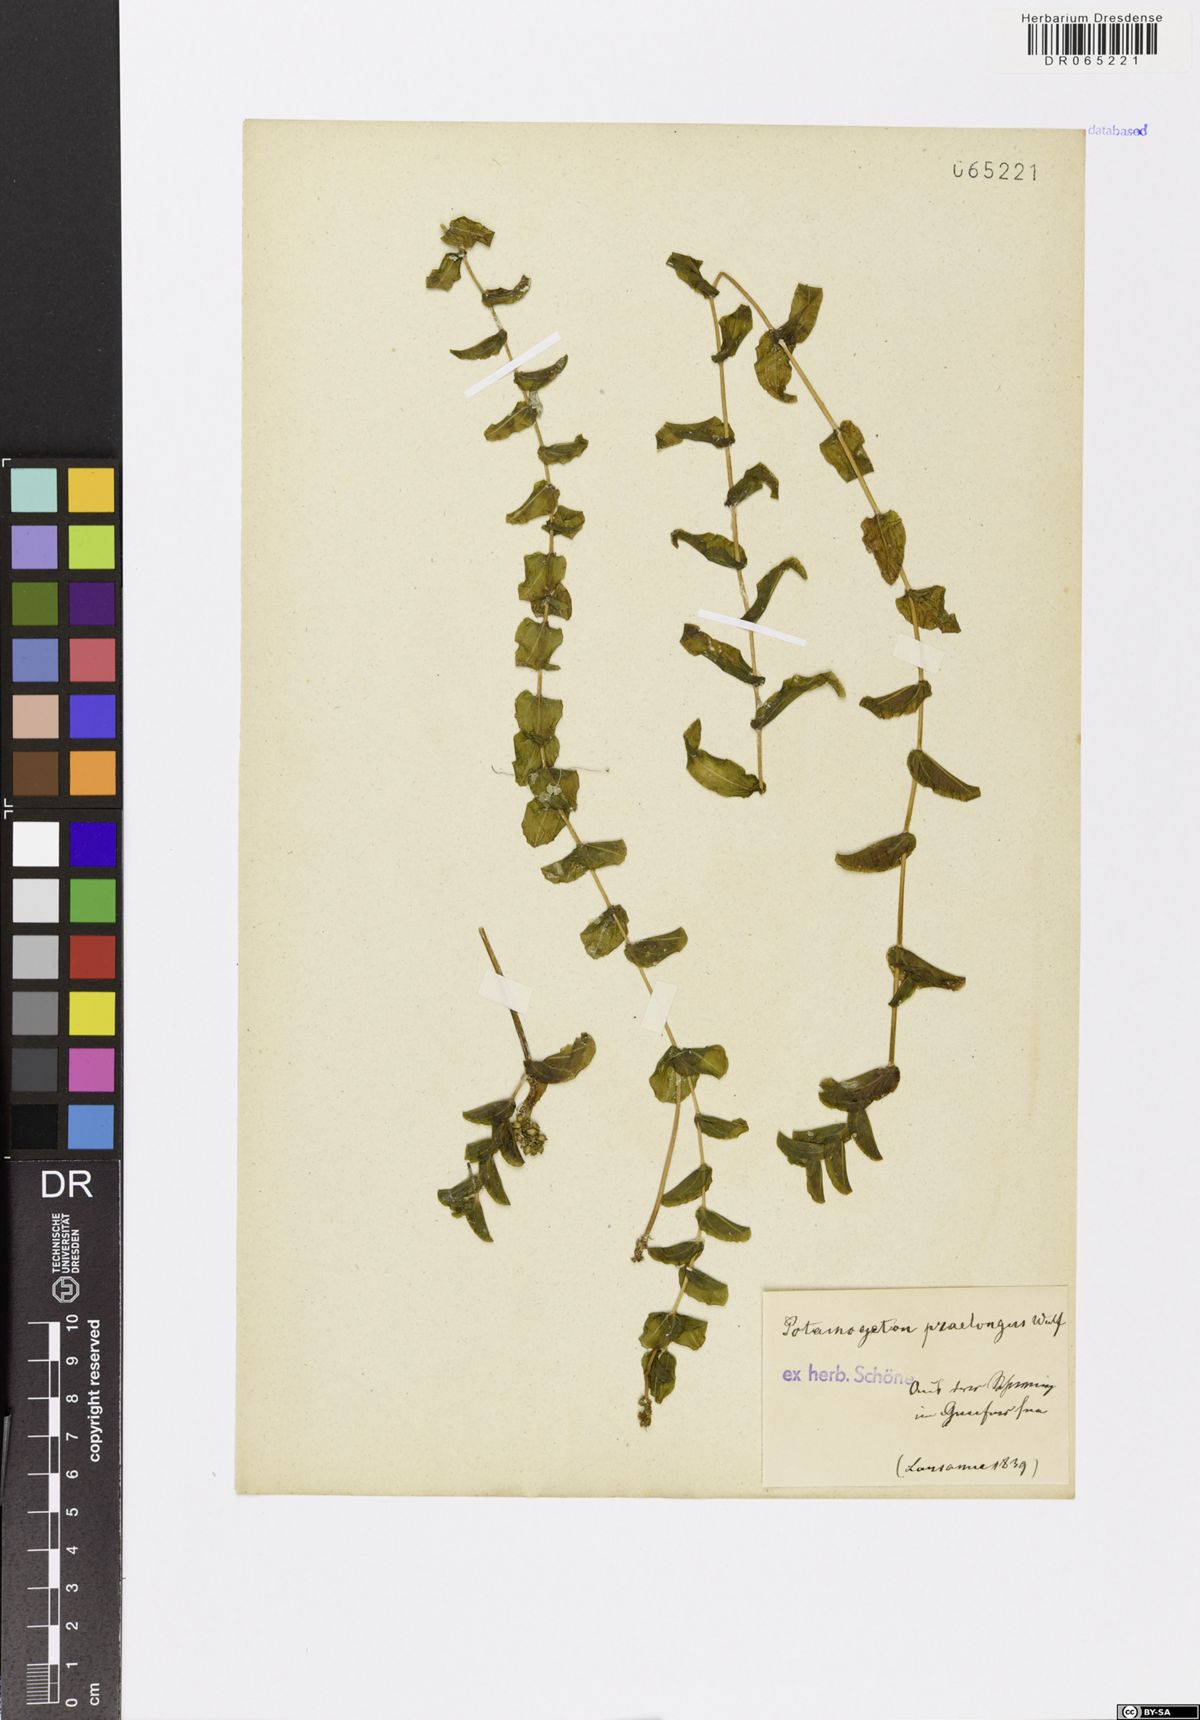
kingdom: Plantae
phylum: Tracheophyta
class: Liliopsida
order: Alismatales
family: Potamogetonaceae
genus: Potamogeton
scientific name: Potamogeton praelongus
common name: Long-stalked pondweed
